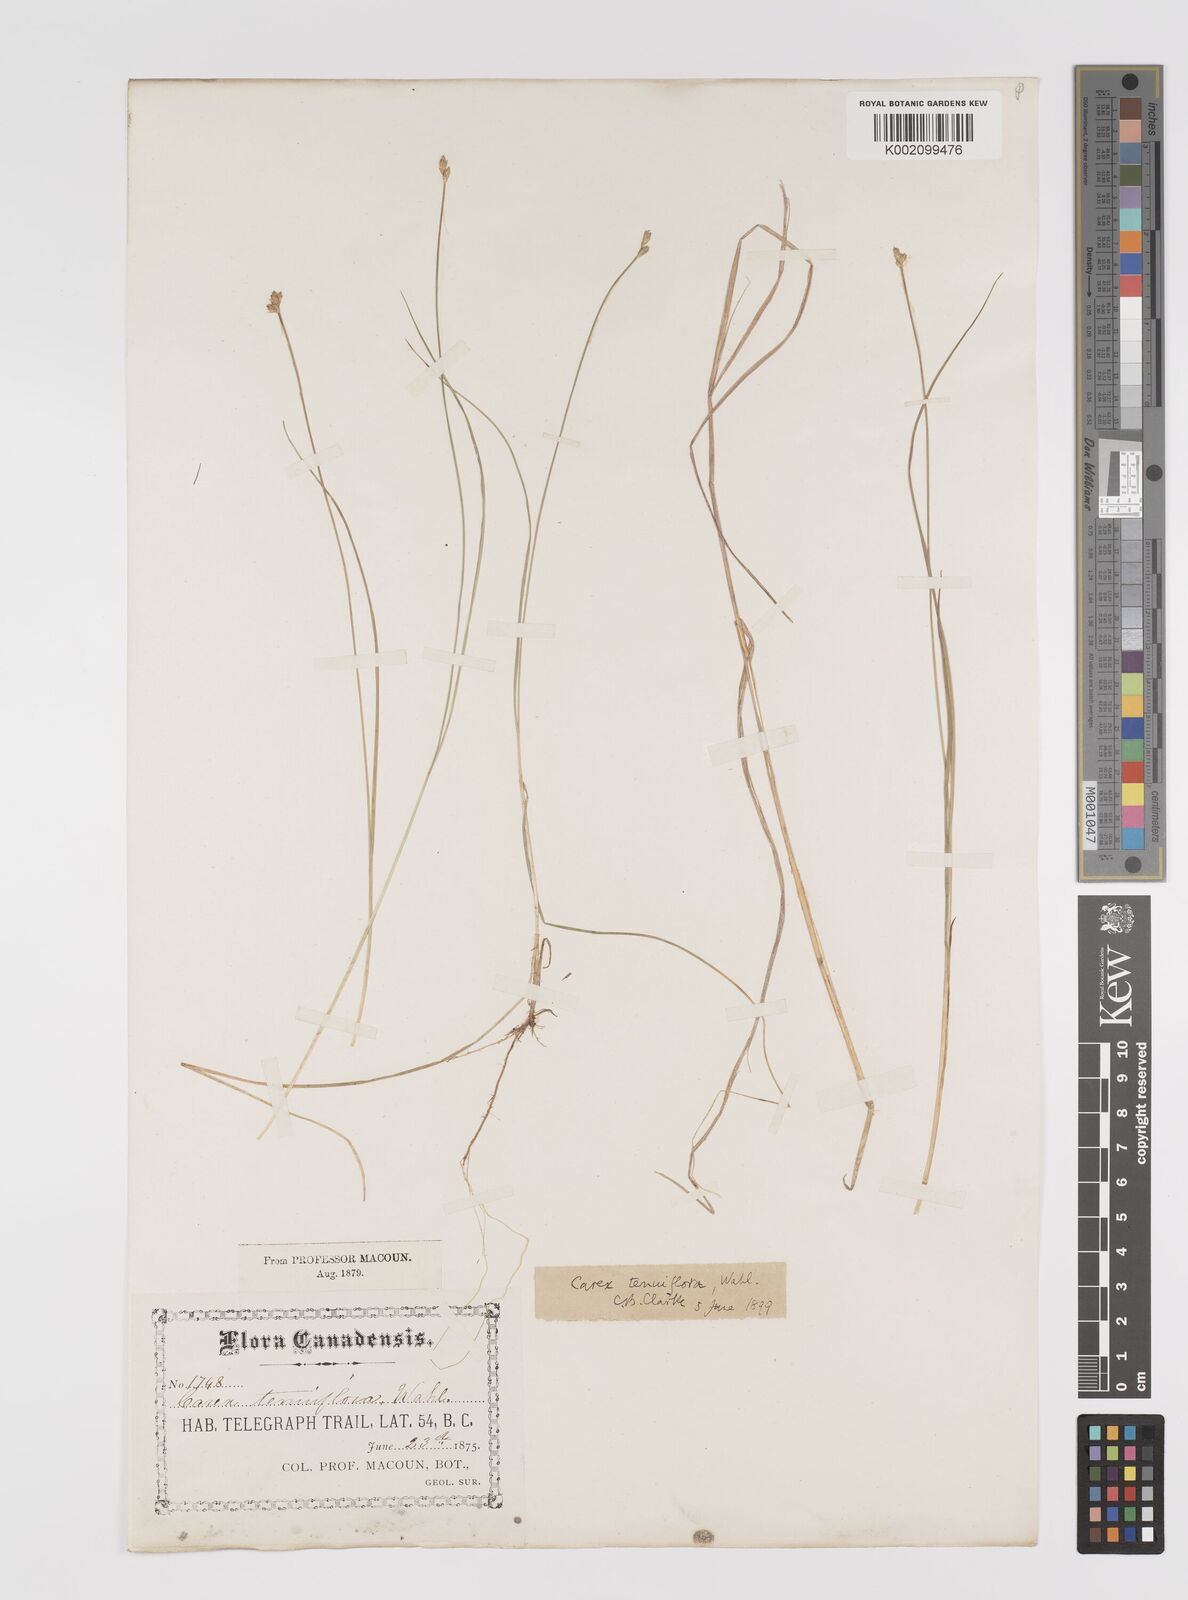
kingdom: Plantae
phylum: Tracheophyta
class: Liliopsida
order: Poales
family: Cyperaceae
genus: Carex
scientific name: Carex tenuiflora
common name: Sparse-flowered sedge
